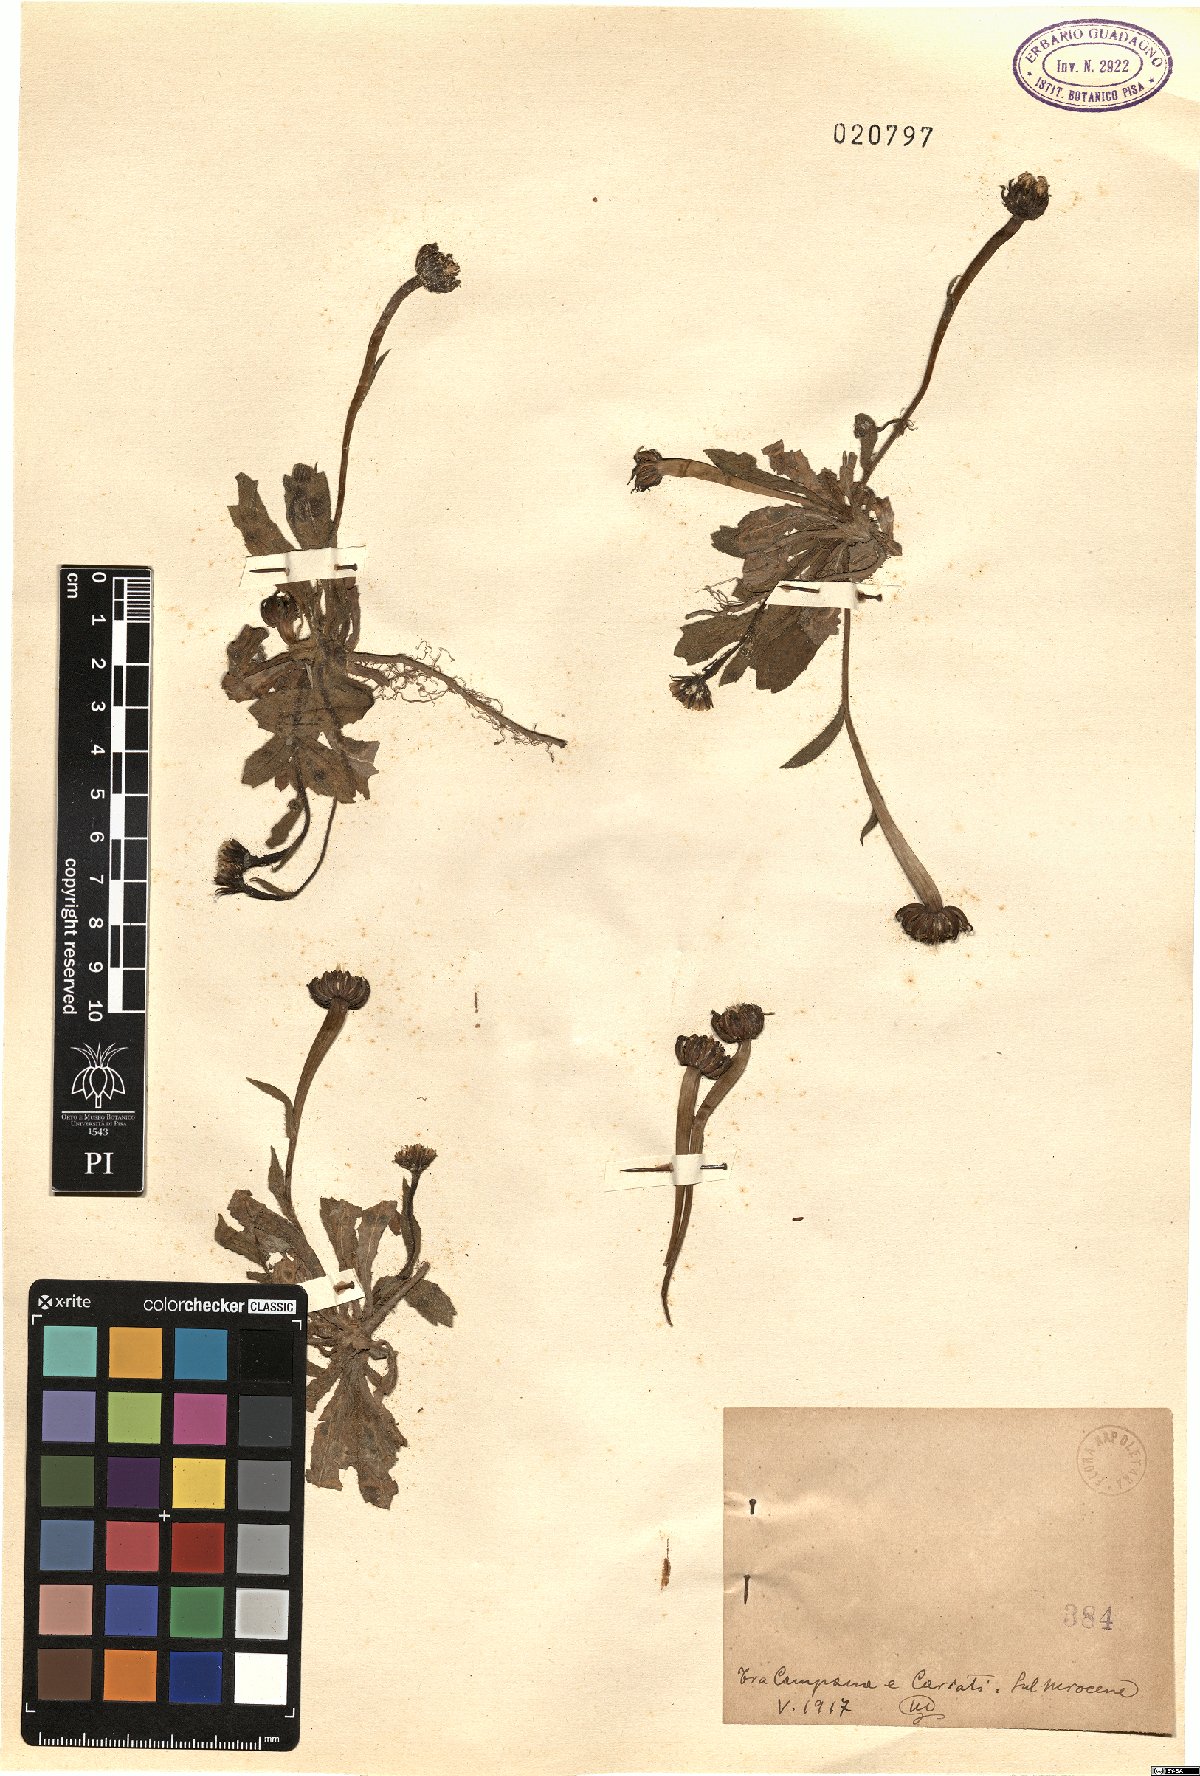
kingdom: Plantae
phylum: Tracheophyta
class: Magnoliopsida
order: Asterales
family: Asteraceae
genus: Rhagadiolus
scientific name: Rhagadiolus
